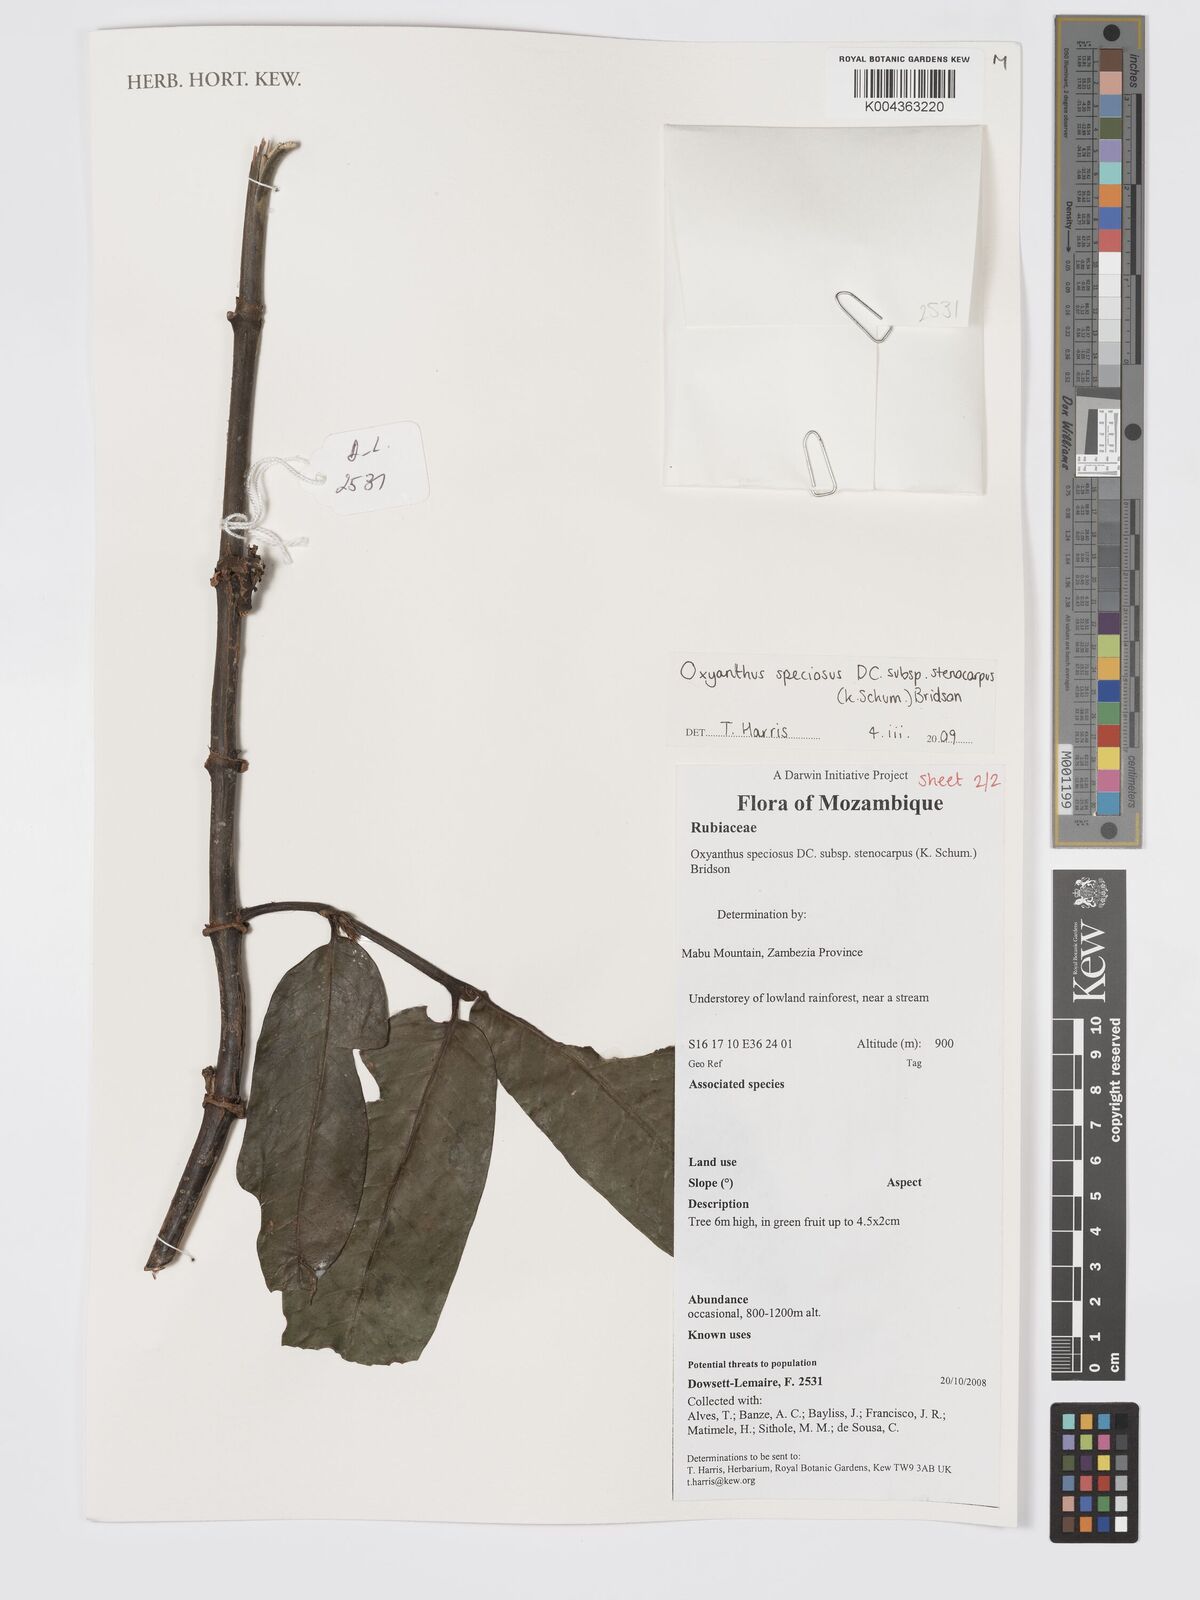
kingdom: Plantae
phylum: Tracheophyta
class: Magnoliopsida
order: Gentianales
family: Rubiaceae
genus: Oxyanthus
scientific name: Oxyanthus speciosus
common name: Whipstick loquat
